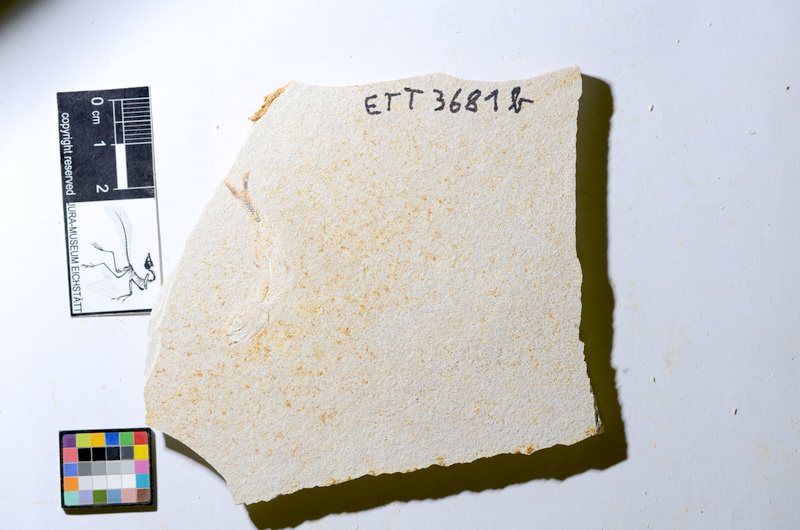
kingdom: Animalia
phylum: Chordata
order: Salmoniformes
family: Orthogonikleithridae
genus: Orthogonikleithrus
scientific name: Orthogonikleithrus hoelli
